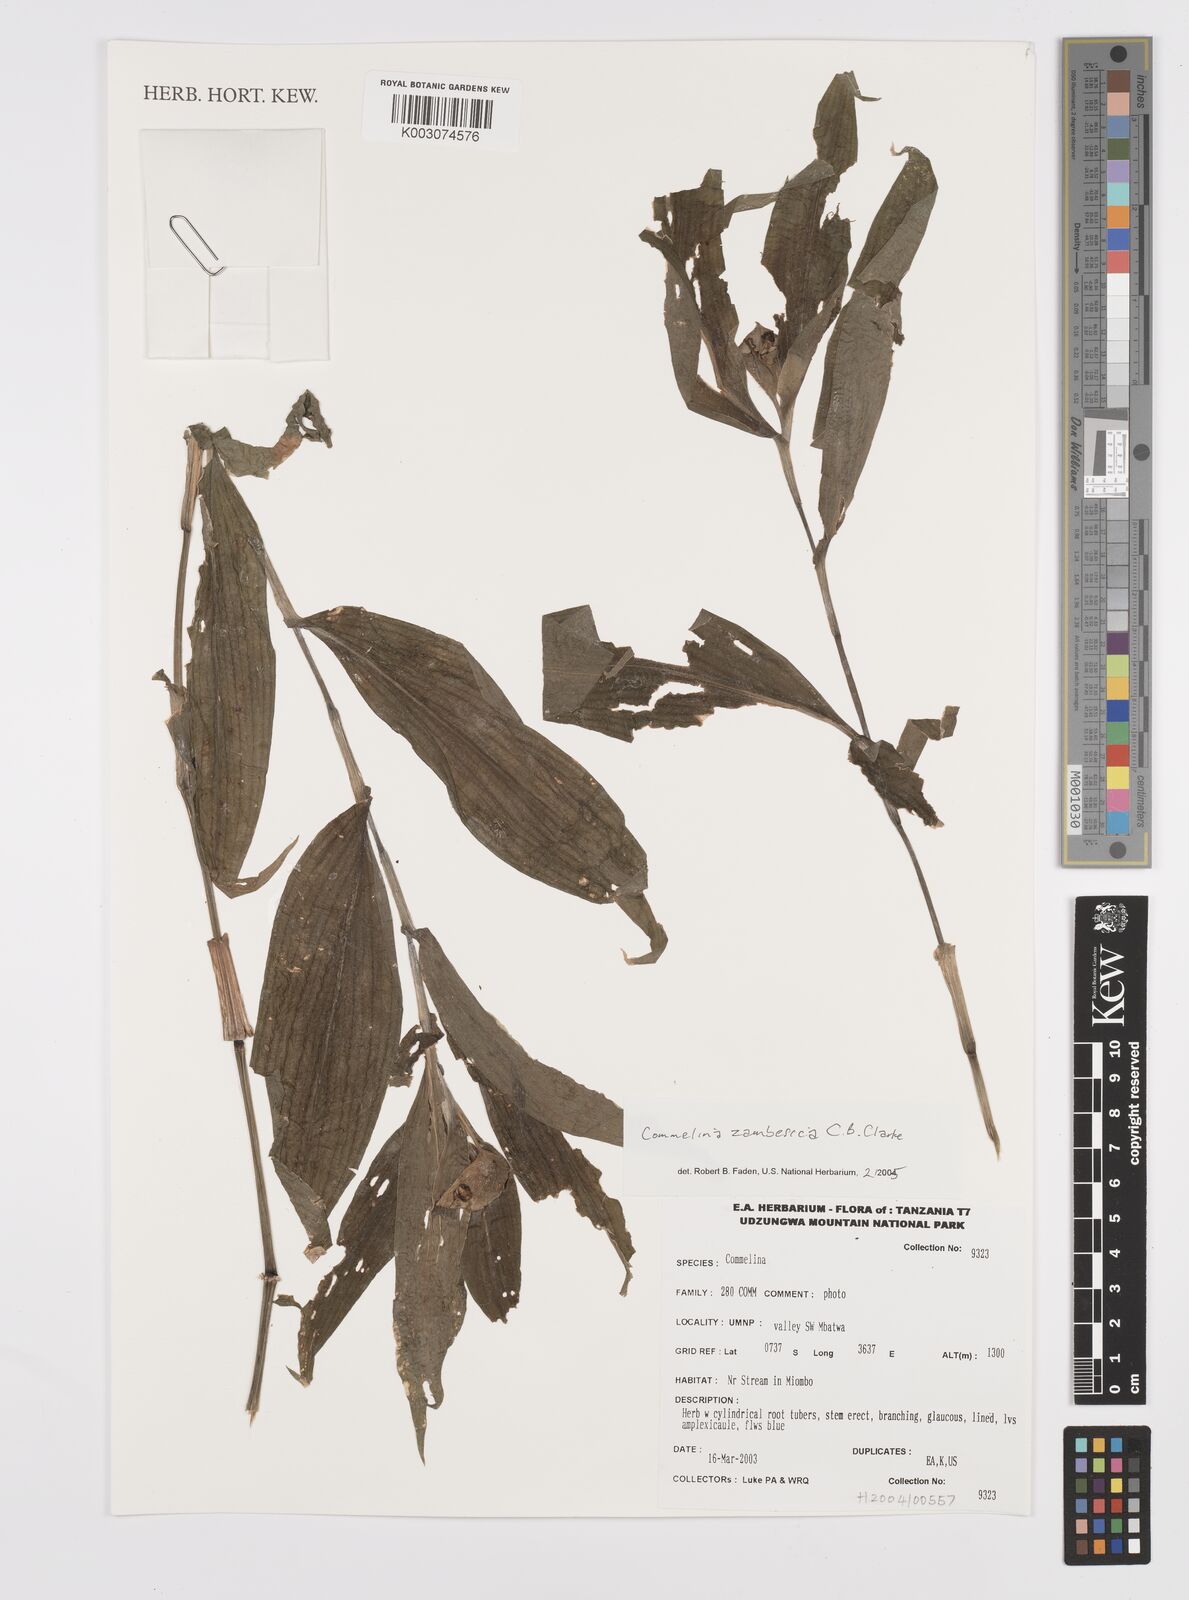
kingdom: Plantae
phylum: Tracheophyta
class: Liliopsida
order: Commelinales
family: Commelinaceae
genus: Commelina
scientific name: Commelina zambesica
